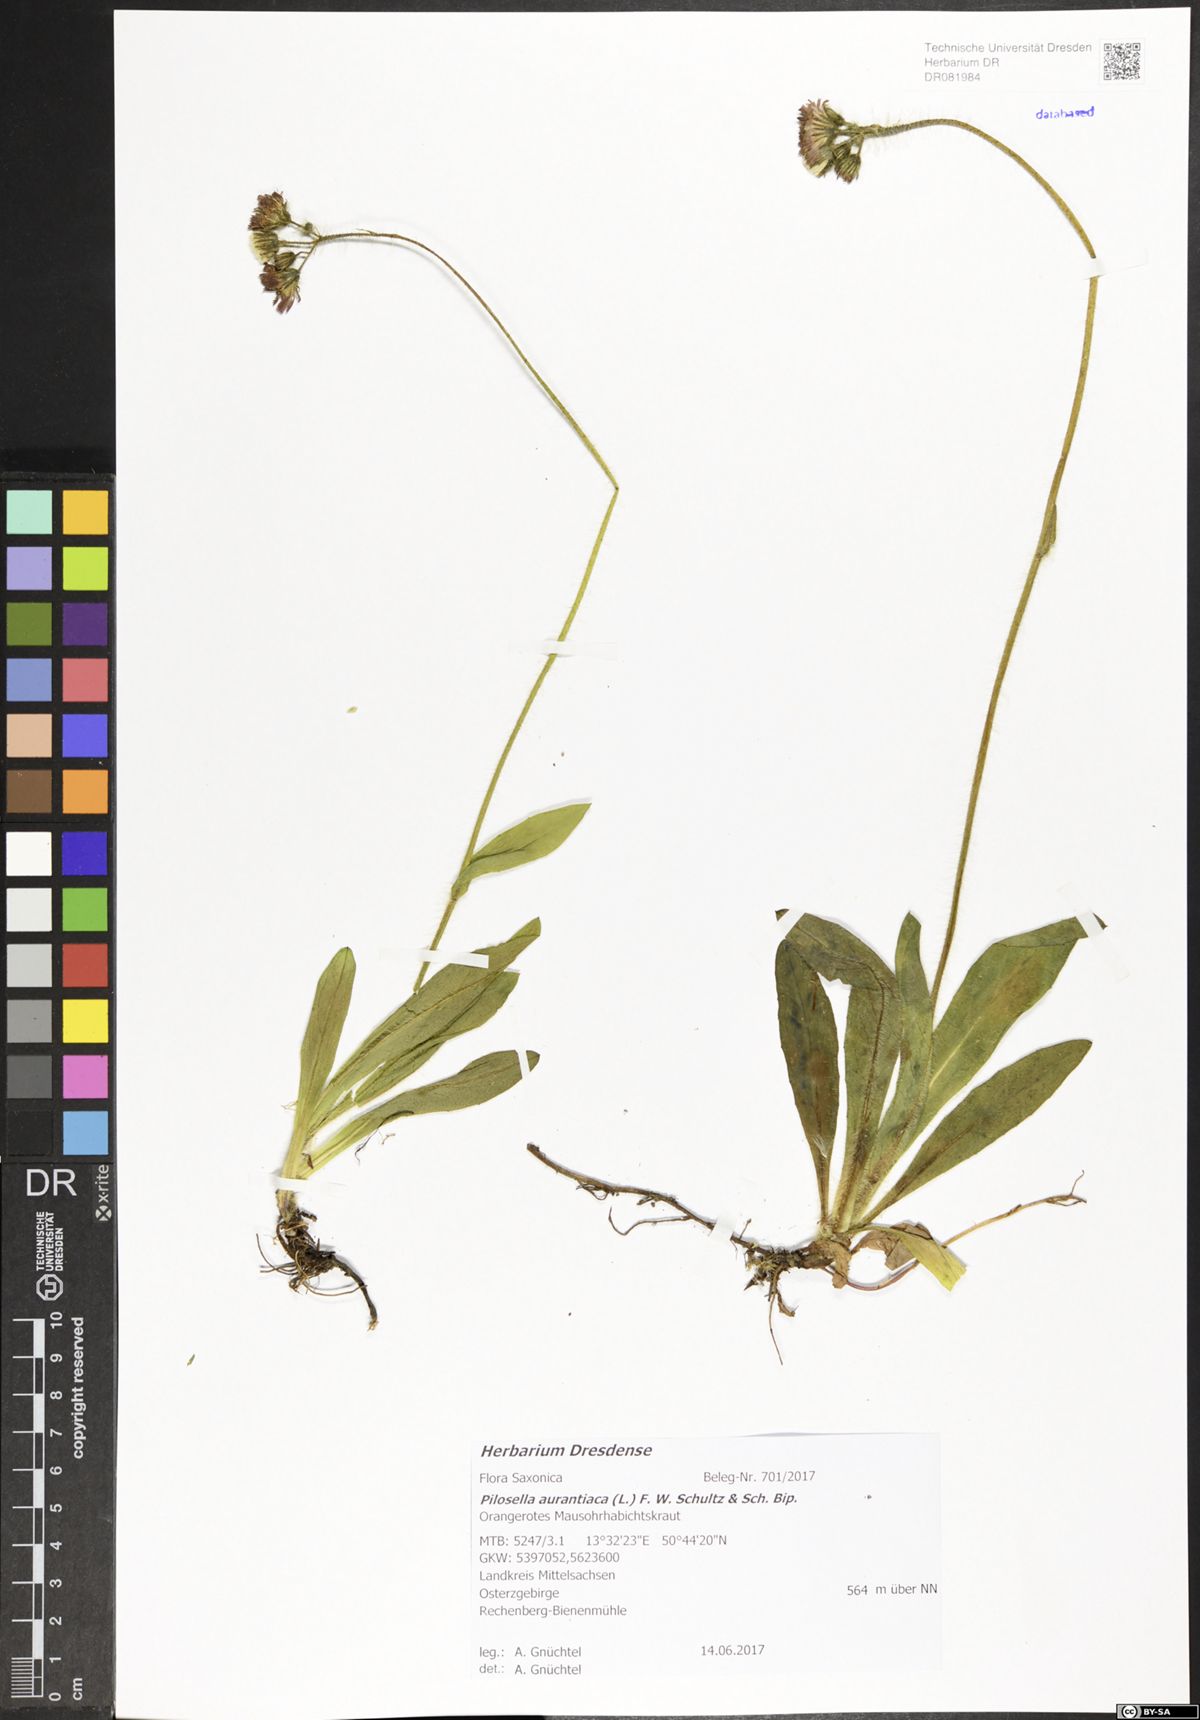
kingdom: Plantae
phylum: Tracheophyta
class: Magnoliopsida
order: Asterales
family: Asteraceae
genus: Pilosella
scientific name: Pilosella aurantiaca
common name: Fox-and-cubs
